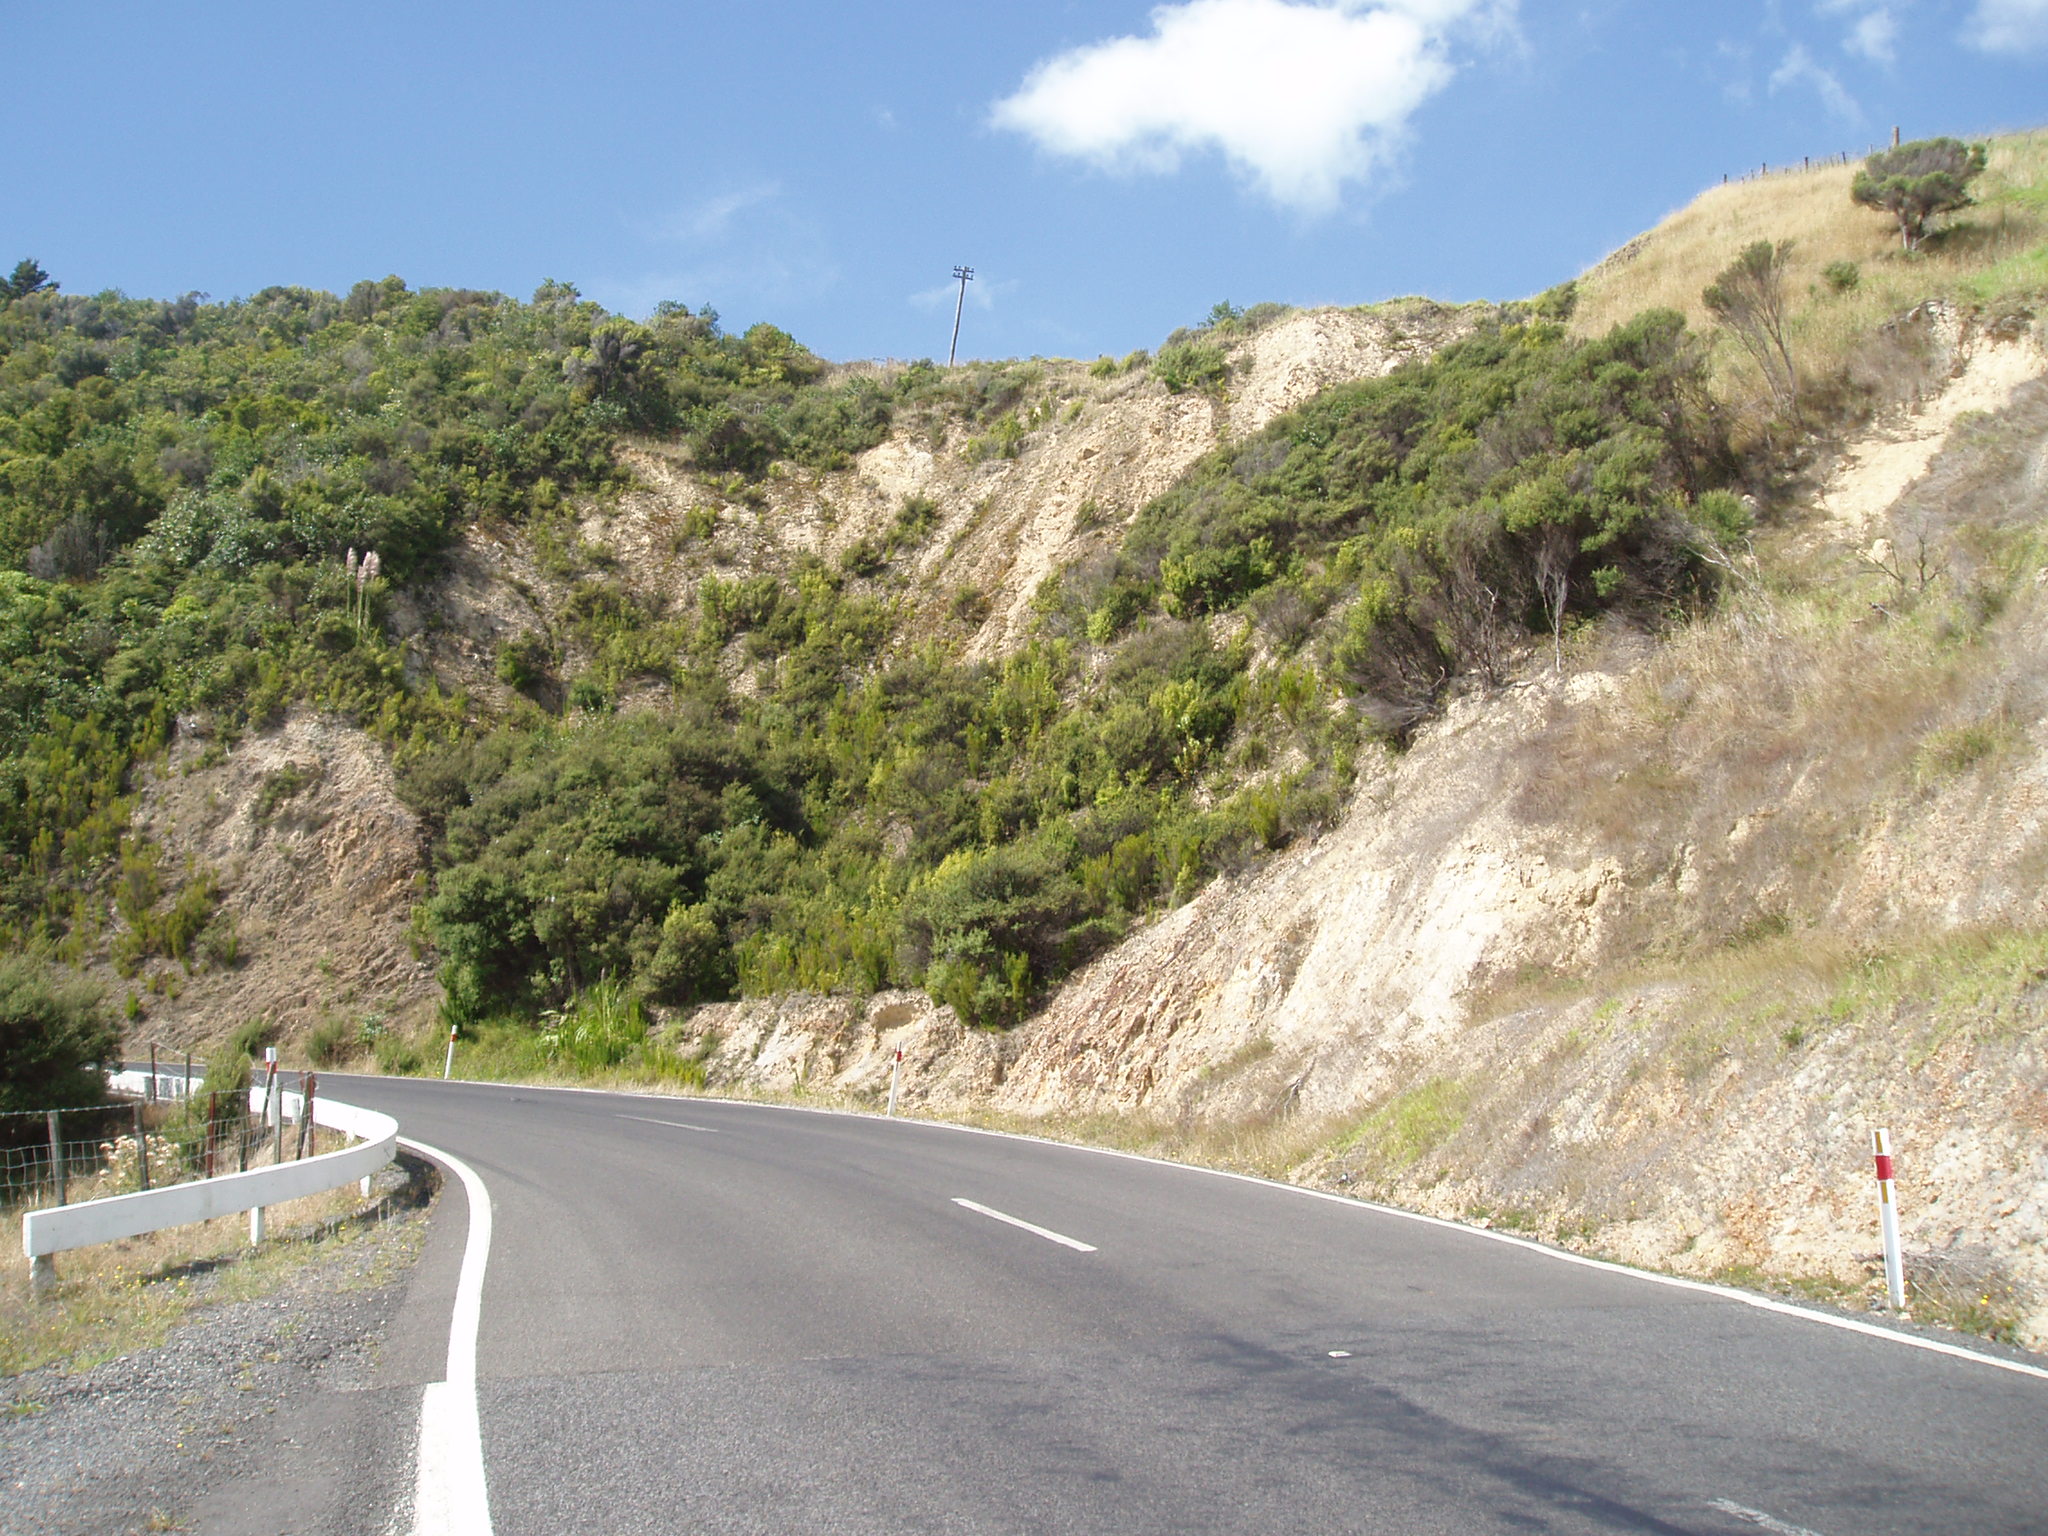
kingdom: Plantae
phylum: Tracheophyta
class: Magnoliopsida
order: Ericales
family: Ericaceae
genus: Erica
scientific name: Erica lusitanica
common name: Spanish heath
